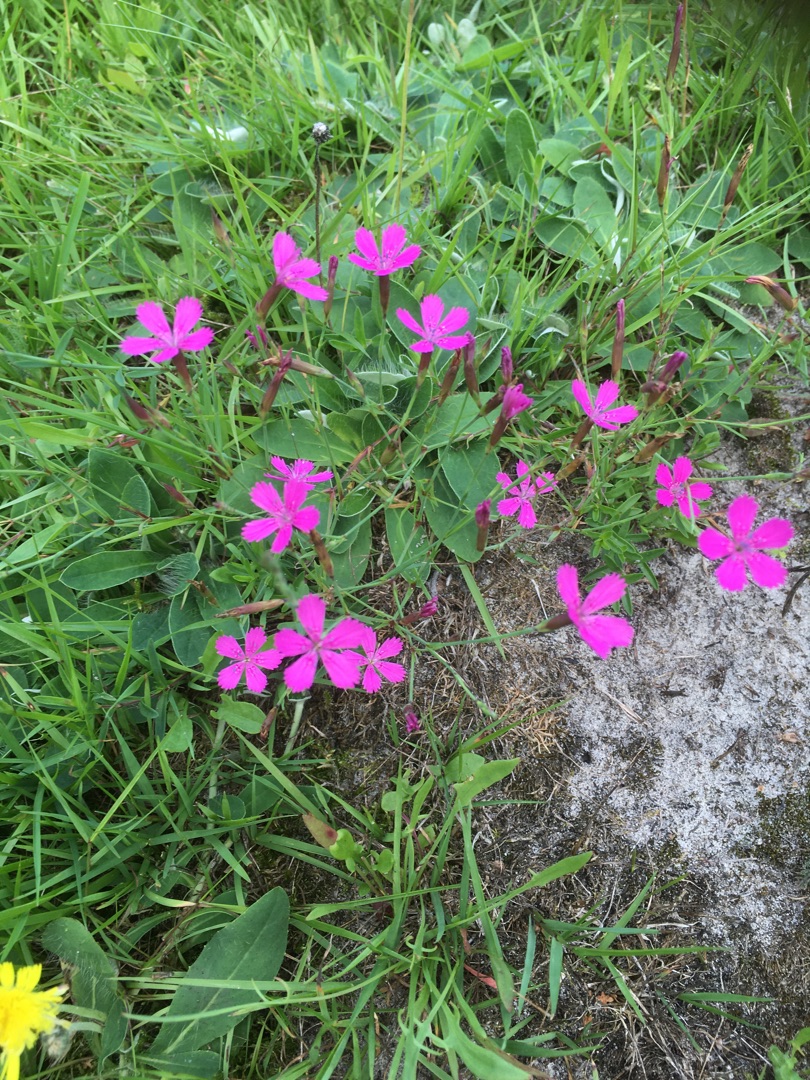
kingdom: Plantae
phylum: Tracheophyta
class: Magnoliopsida
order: Caryophyllales
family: Caryophyllaceae
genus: Dianthus
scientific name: Dianthus deltoides
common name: Bakke-nellike
